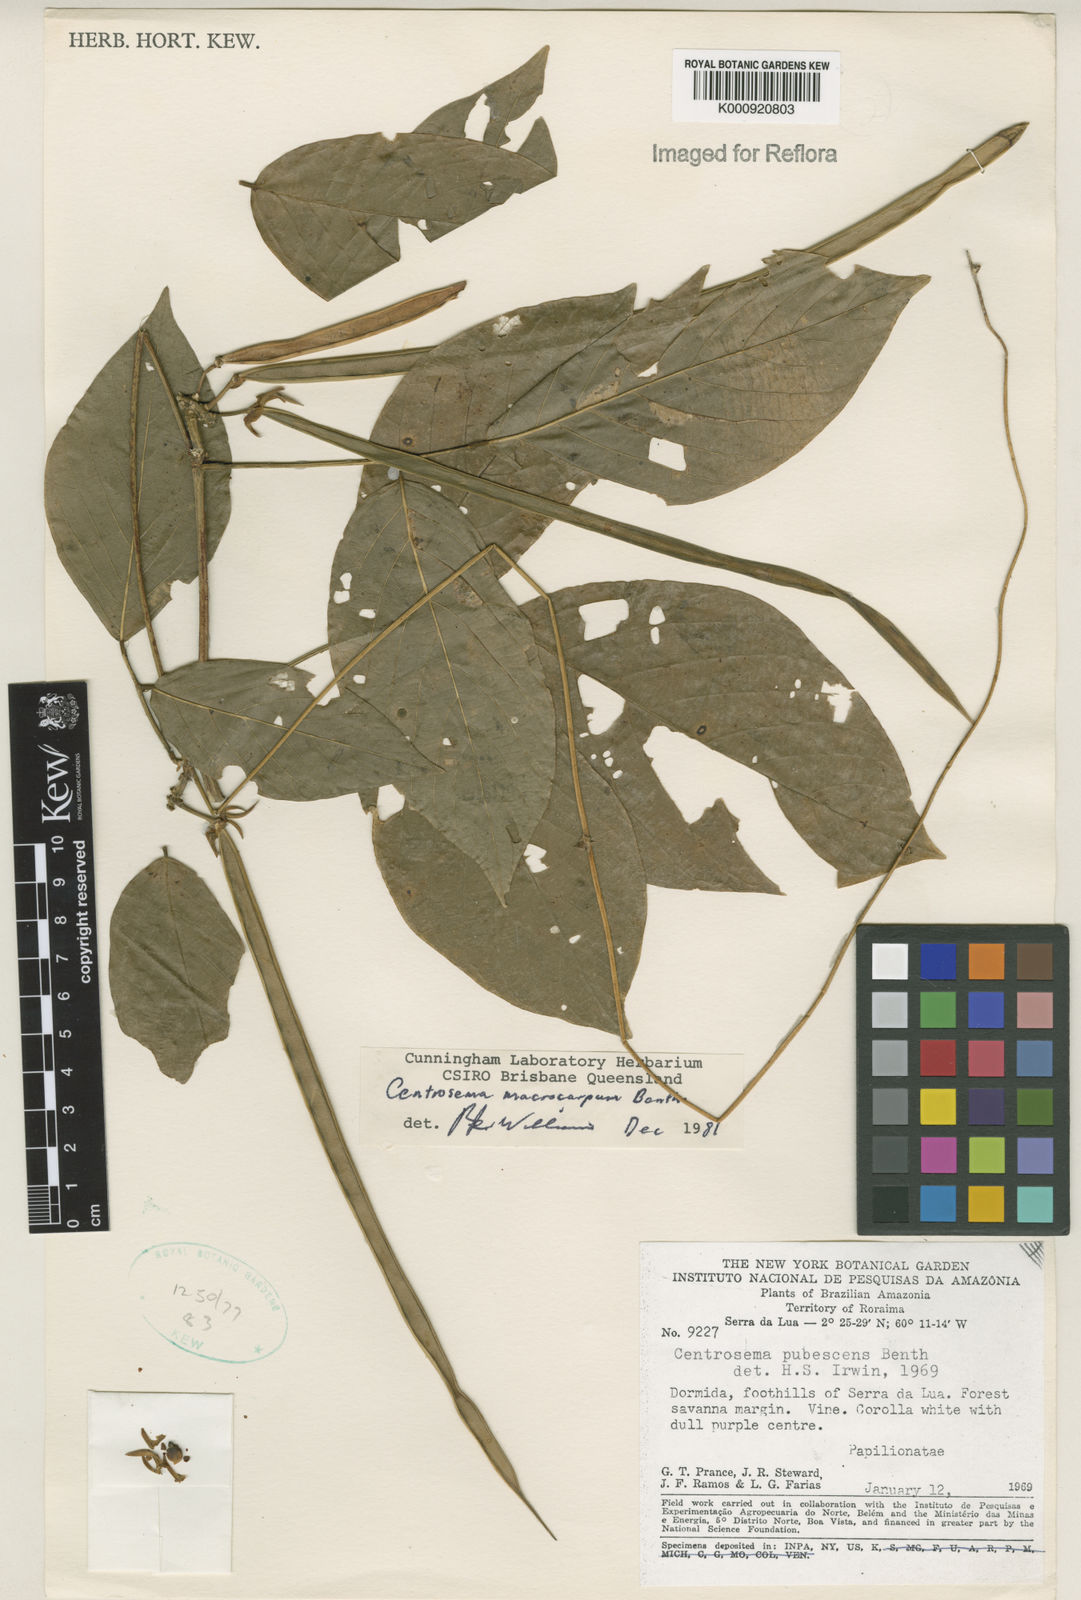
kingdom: Plantae
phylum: Tracheophyta
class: Magnoliopsida
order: Fabales
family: Fabaceae
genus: Centrosema
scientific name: Centrosema macrocarpum
